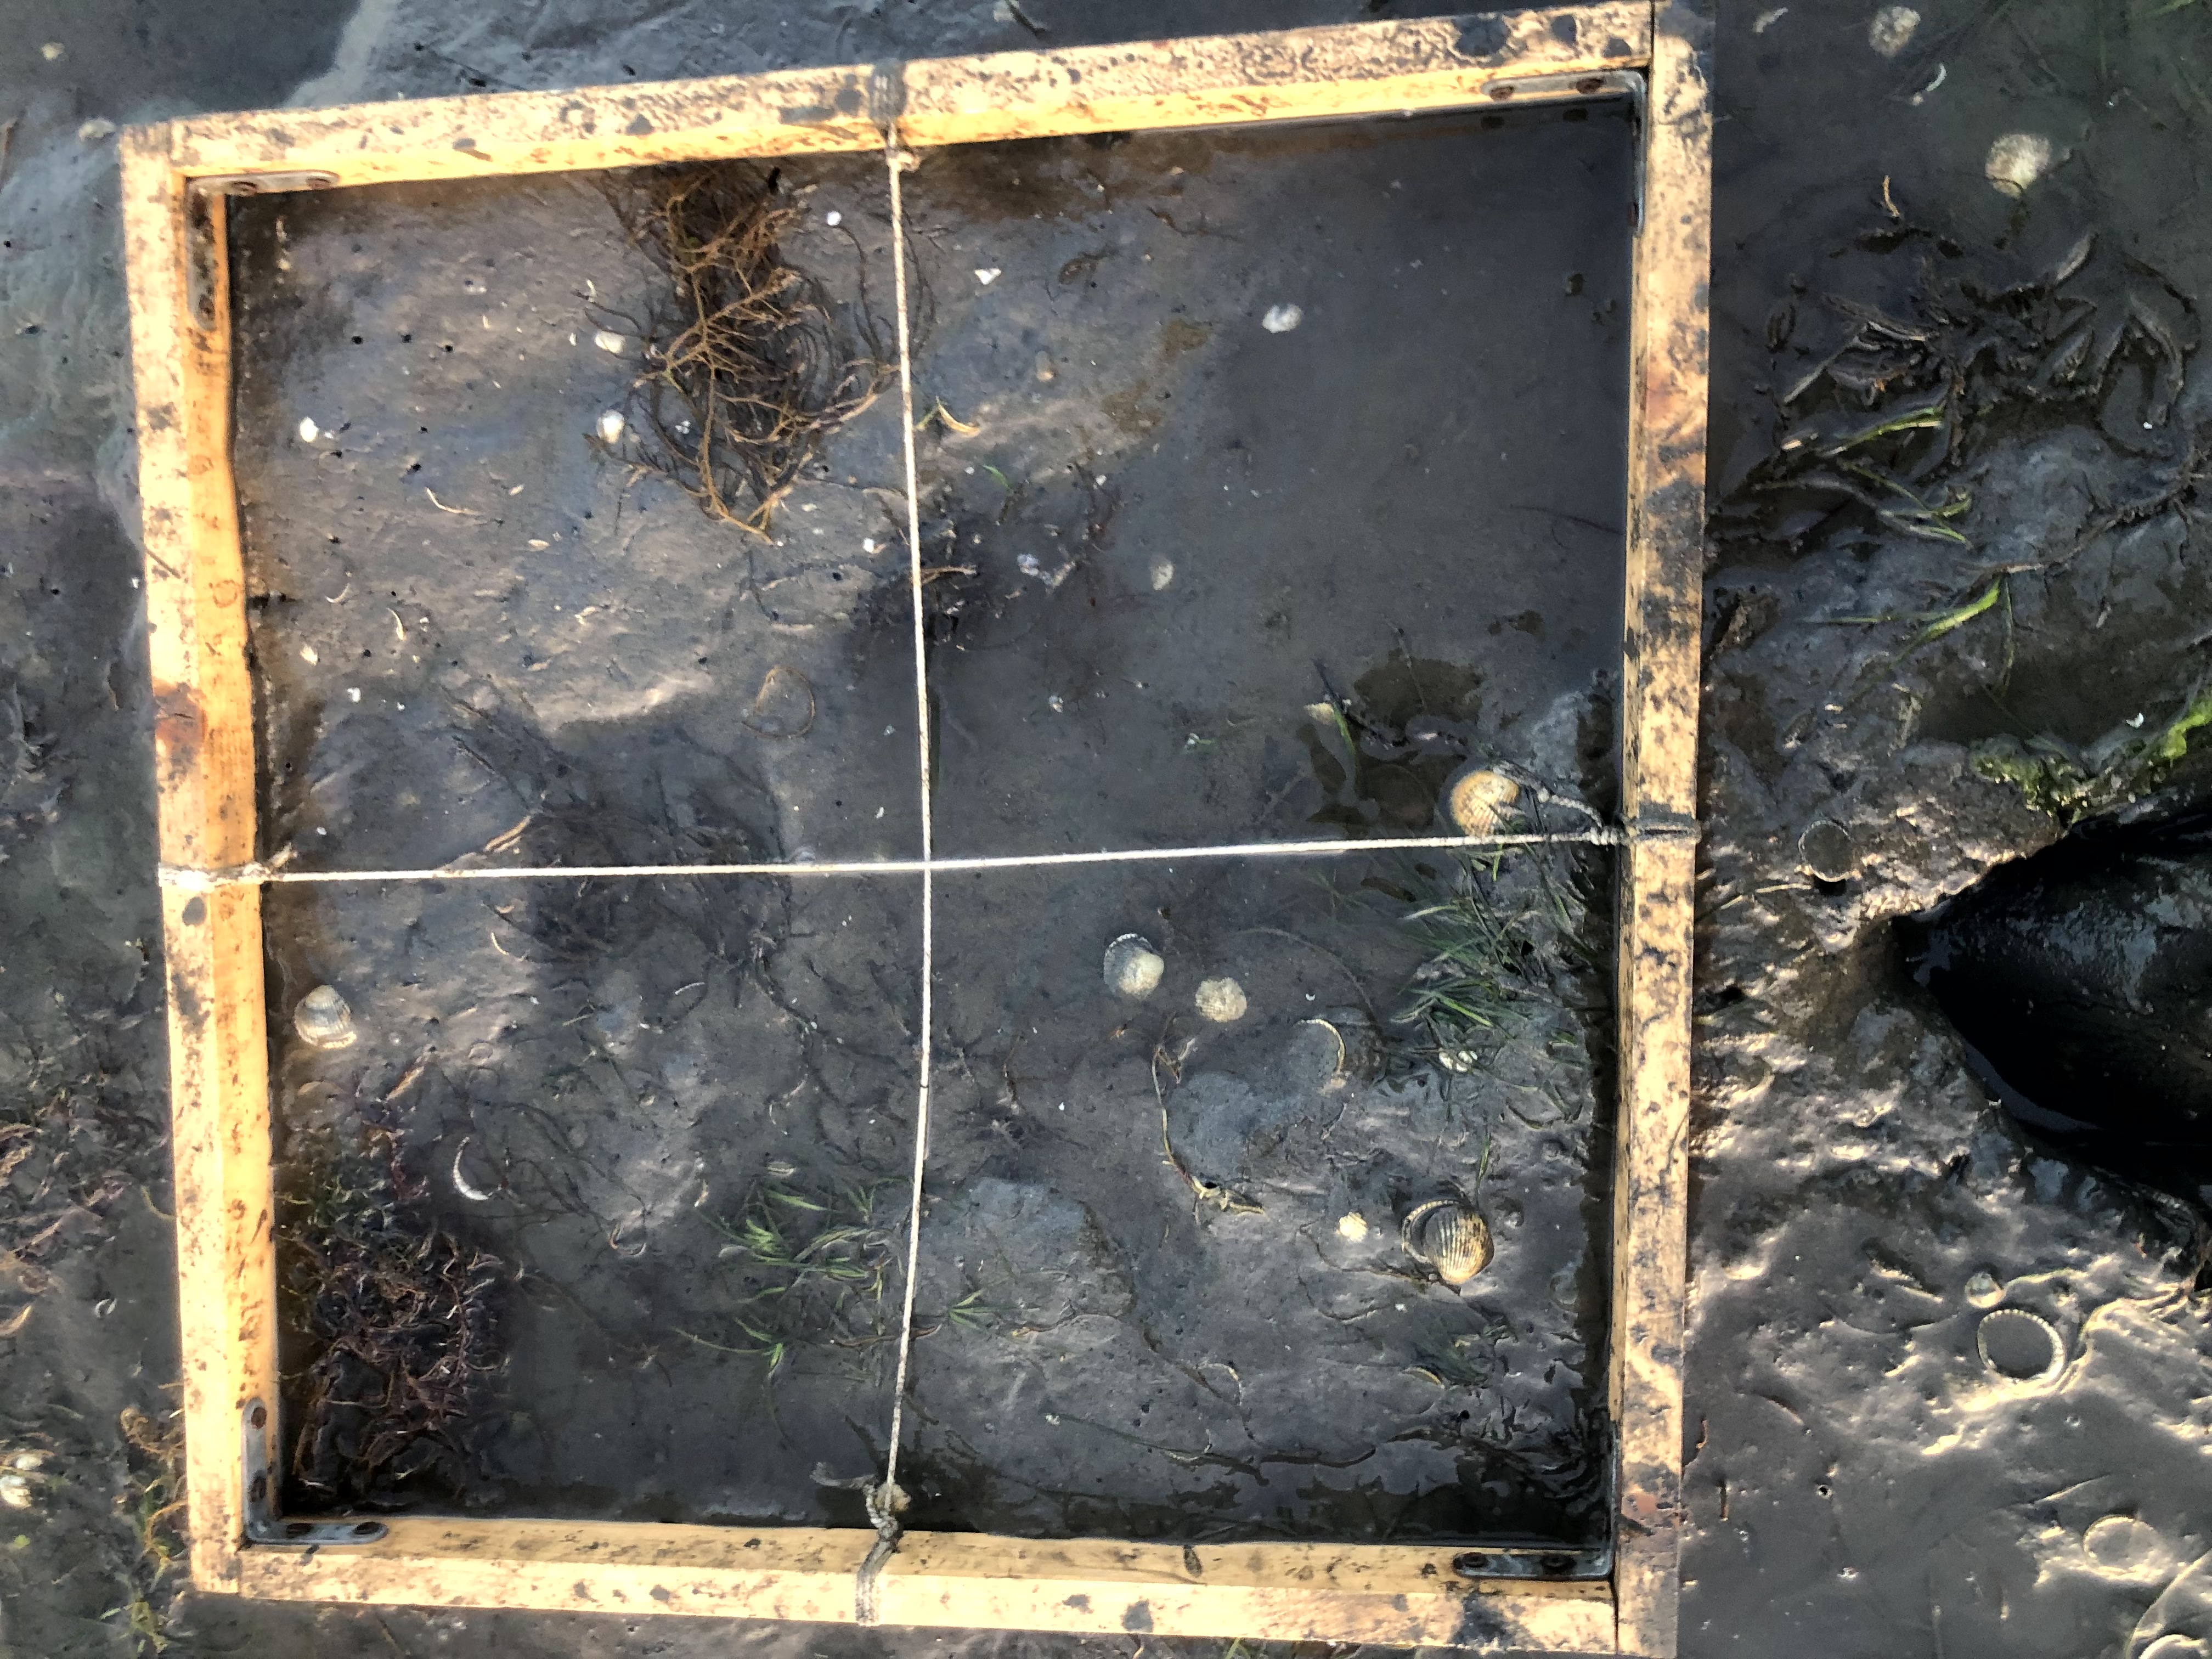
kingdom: Plantae
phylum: Tracheophyta
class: Liliopsida
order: Alismatales
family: Zosteraceae
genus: Zostera
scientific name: Zostera noltii
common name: Dwarf eelgrass
